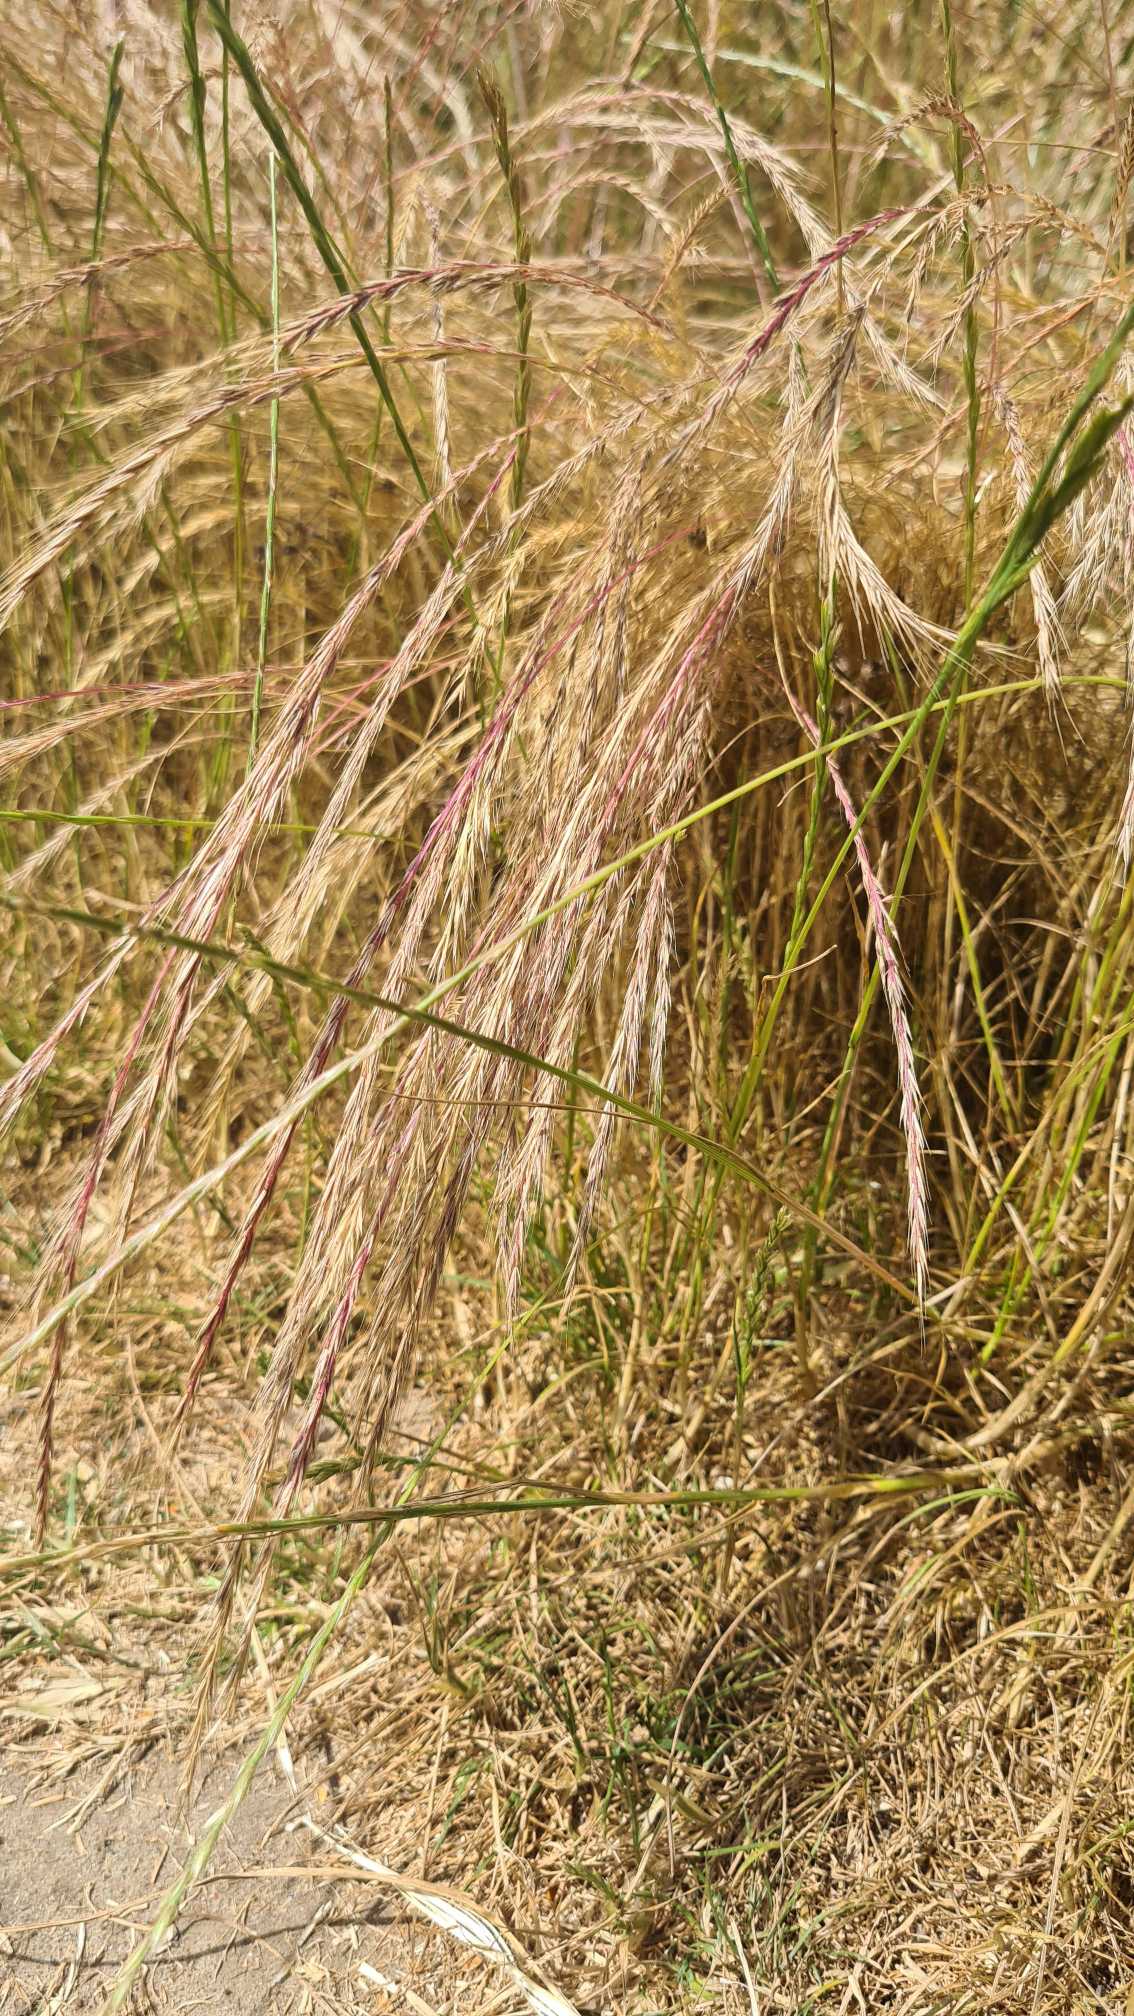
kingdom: Plantae
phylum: Tracheophyta
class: Liliopsida
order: Poales
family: Poaceae
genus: Festuca
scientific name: Festuca myuros
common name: Stor væselhale
